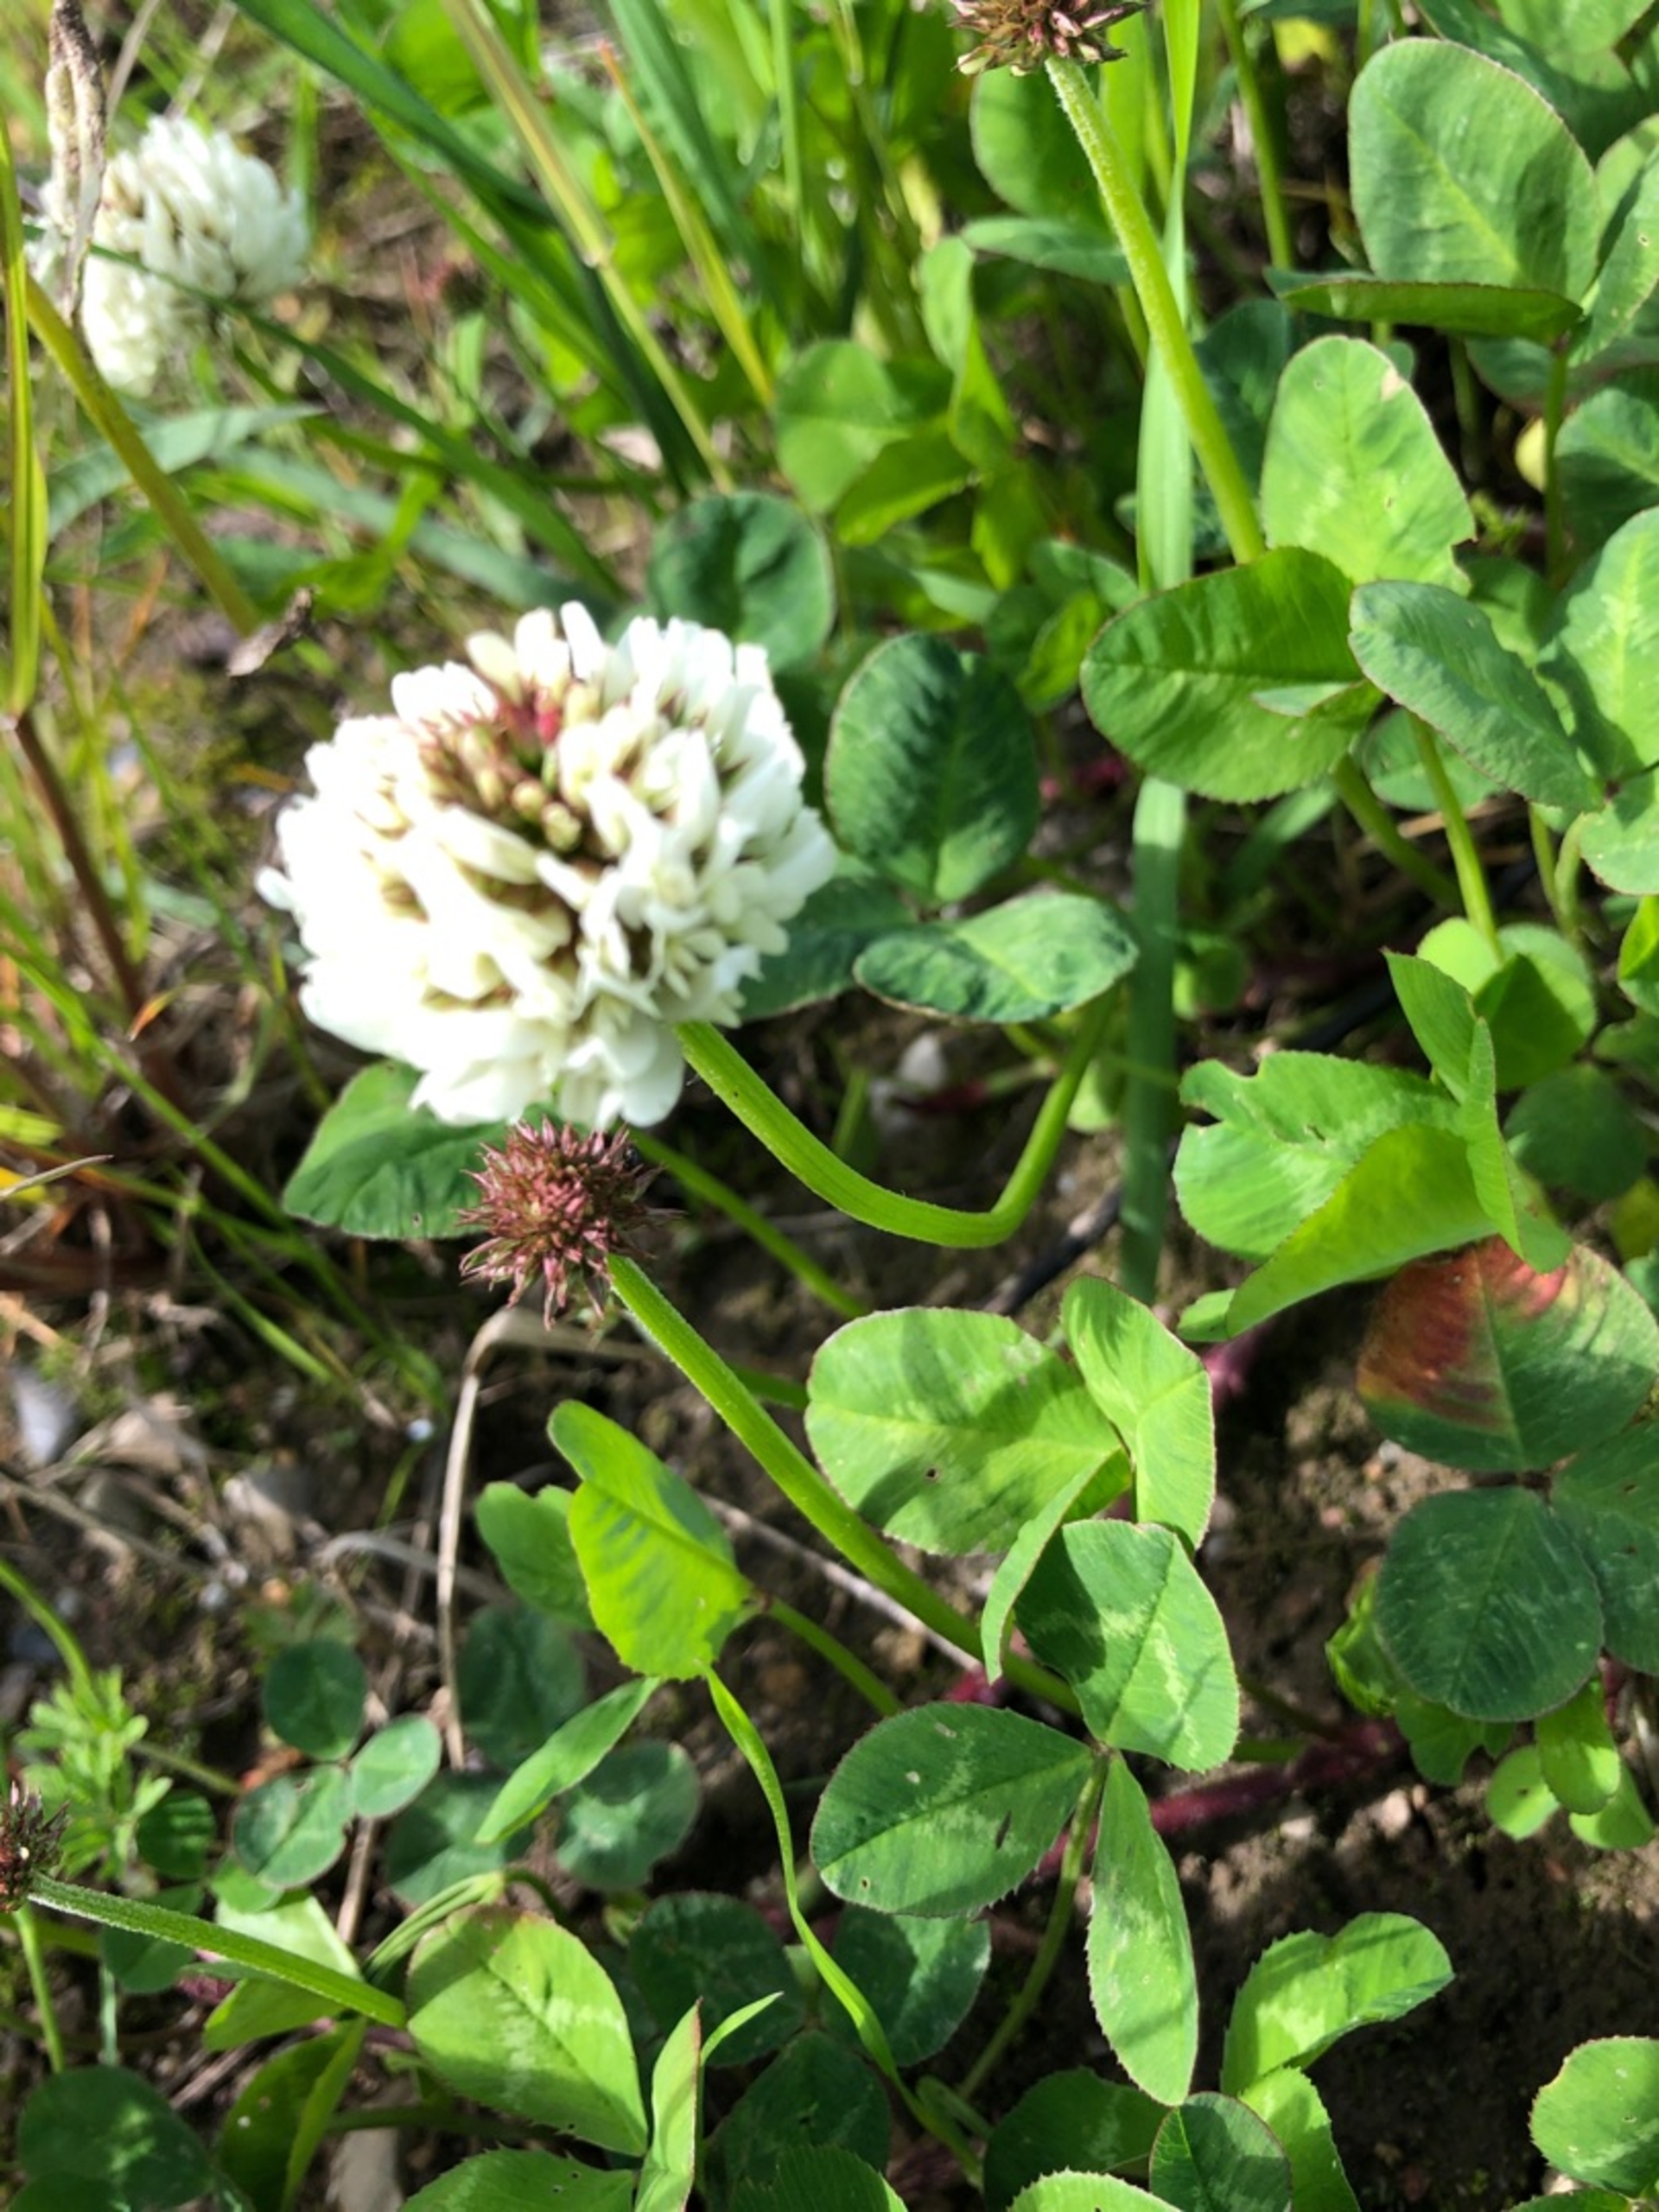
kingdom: Plantae
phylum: Tracheophyta
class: Magnoliopsida
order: Fabales
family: Fabaceae
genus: Trifolium
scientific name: Trifolium repens
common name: Hvid-kløver
